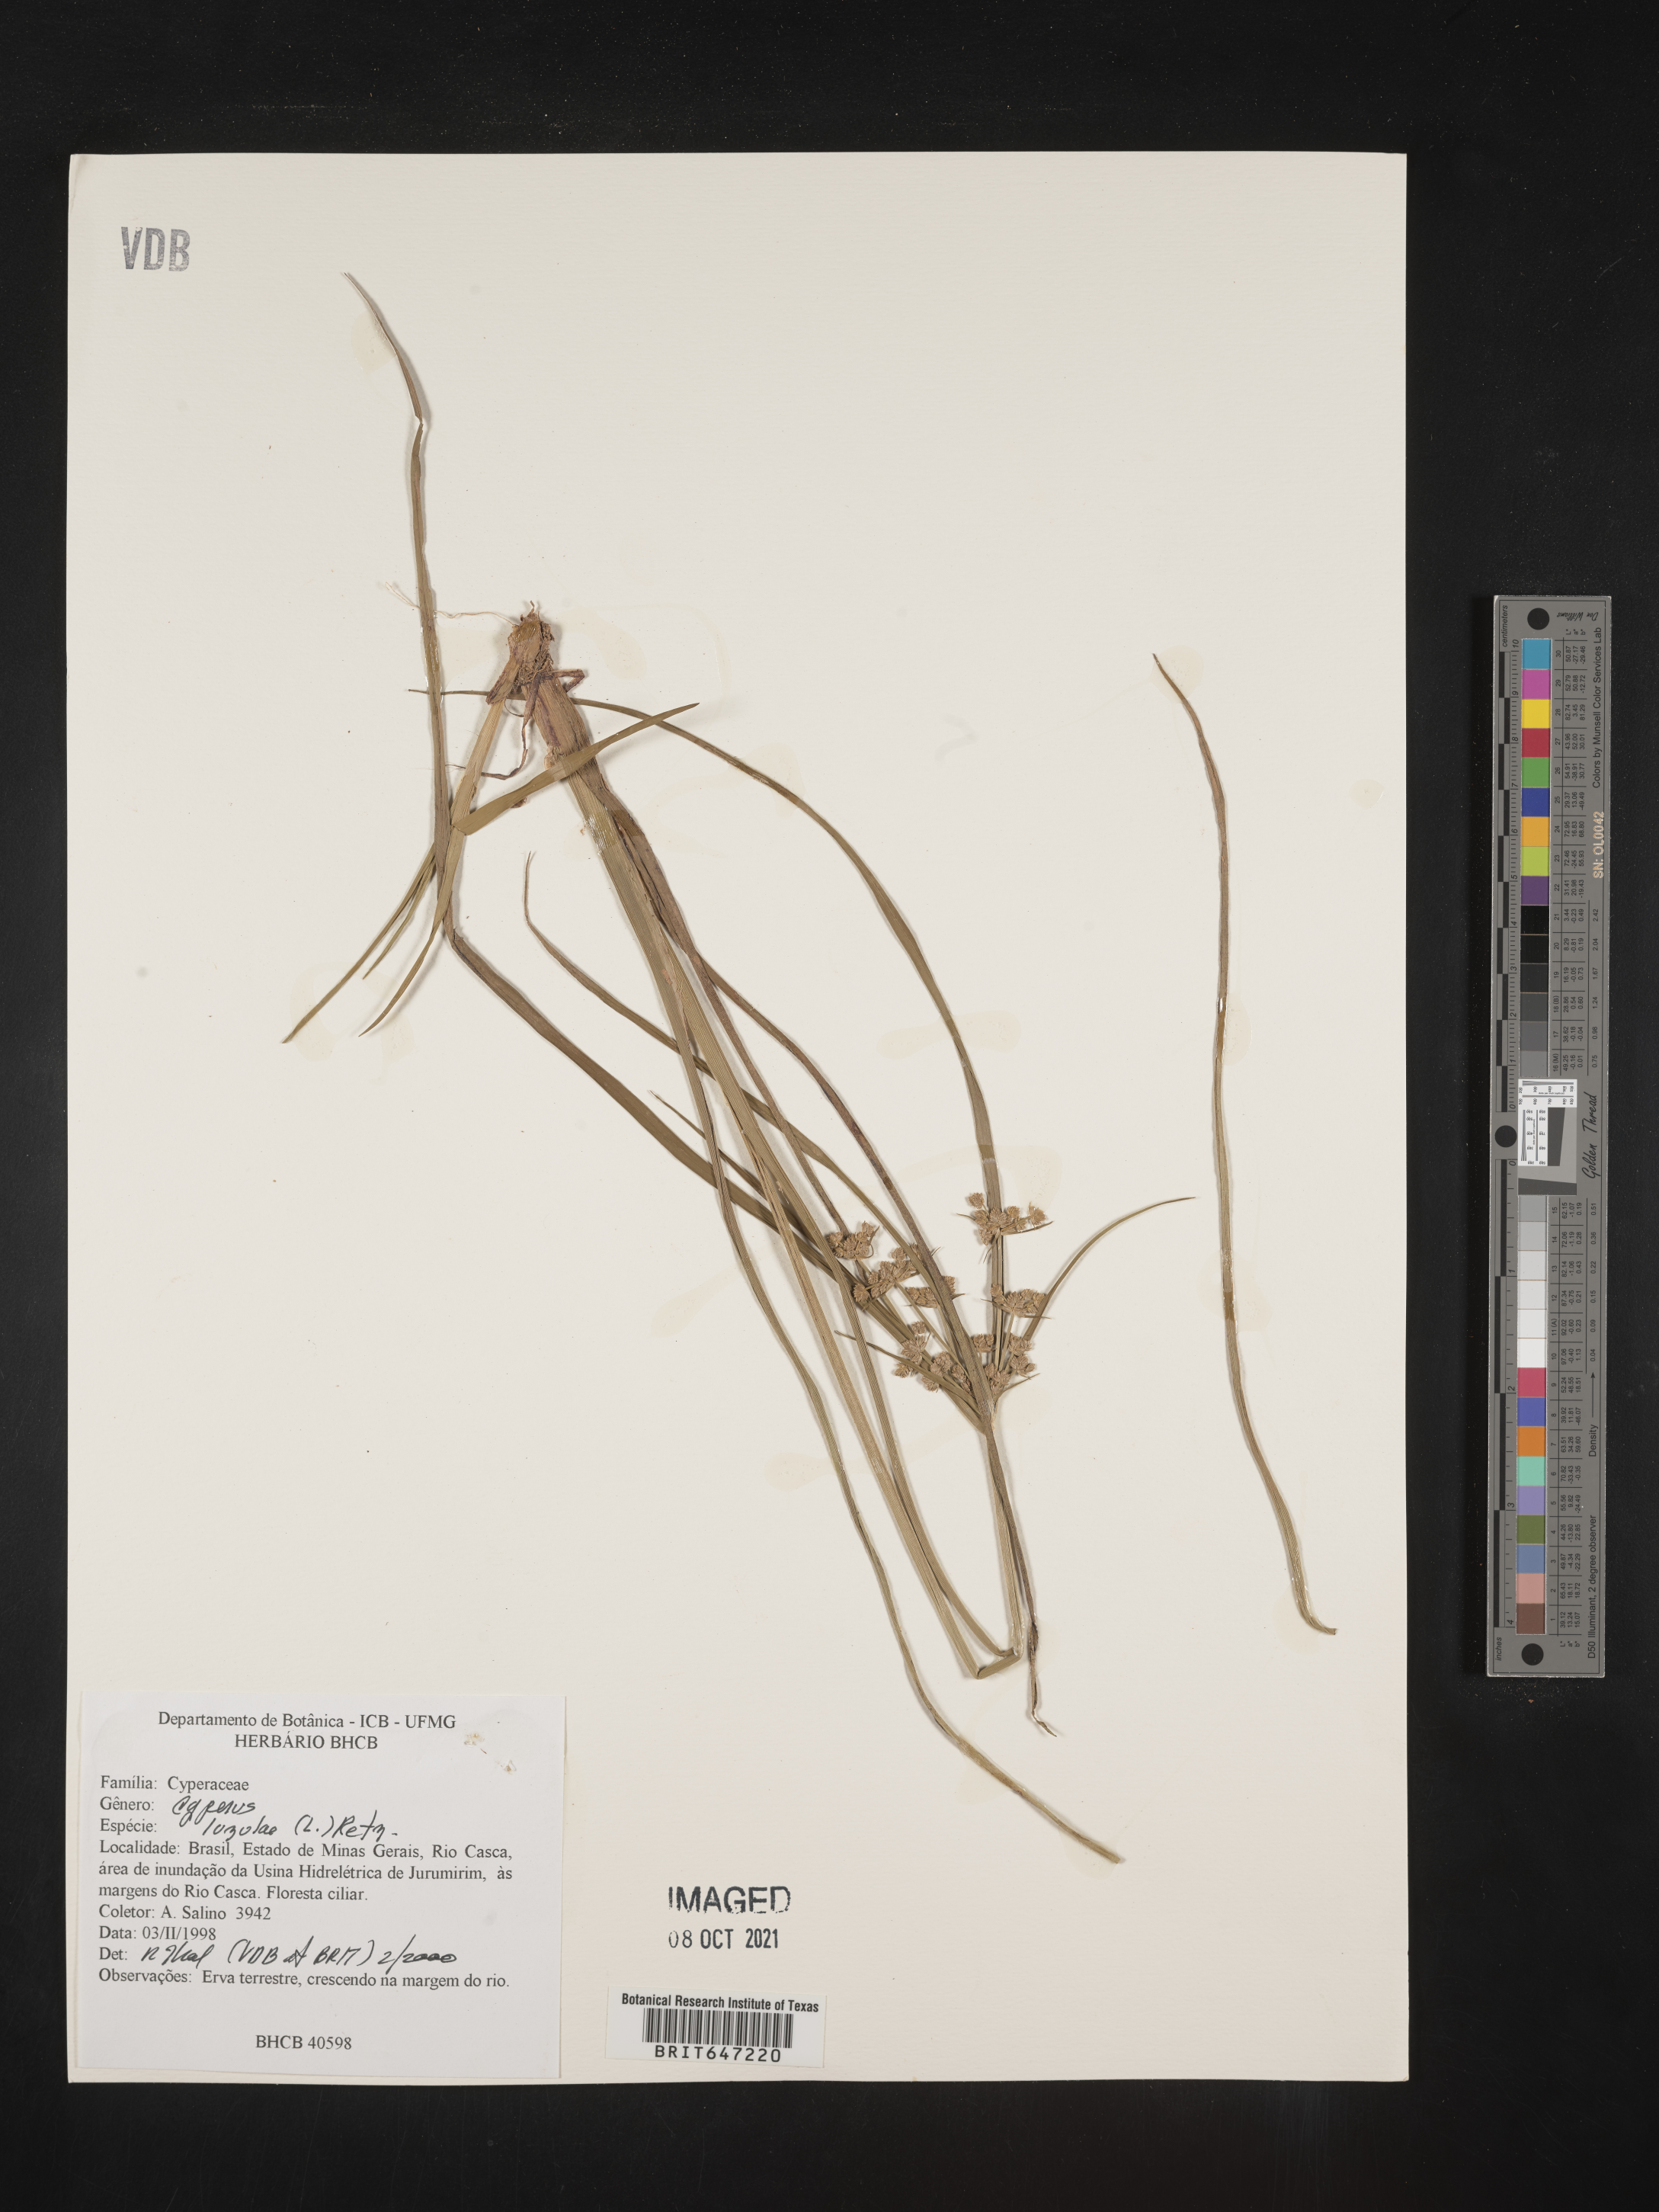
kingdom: Plantae
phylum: Tracheophyta
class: Liliopsida
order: Poales
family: Cyperaceae
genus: Cyperus
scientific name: Cyperus ligularis
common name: Swamp flat sedge
